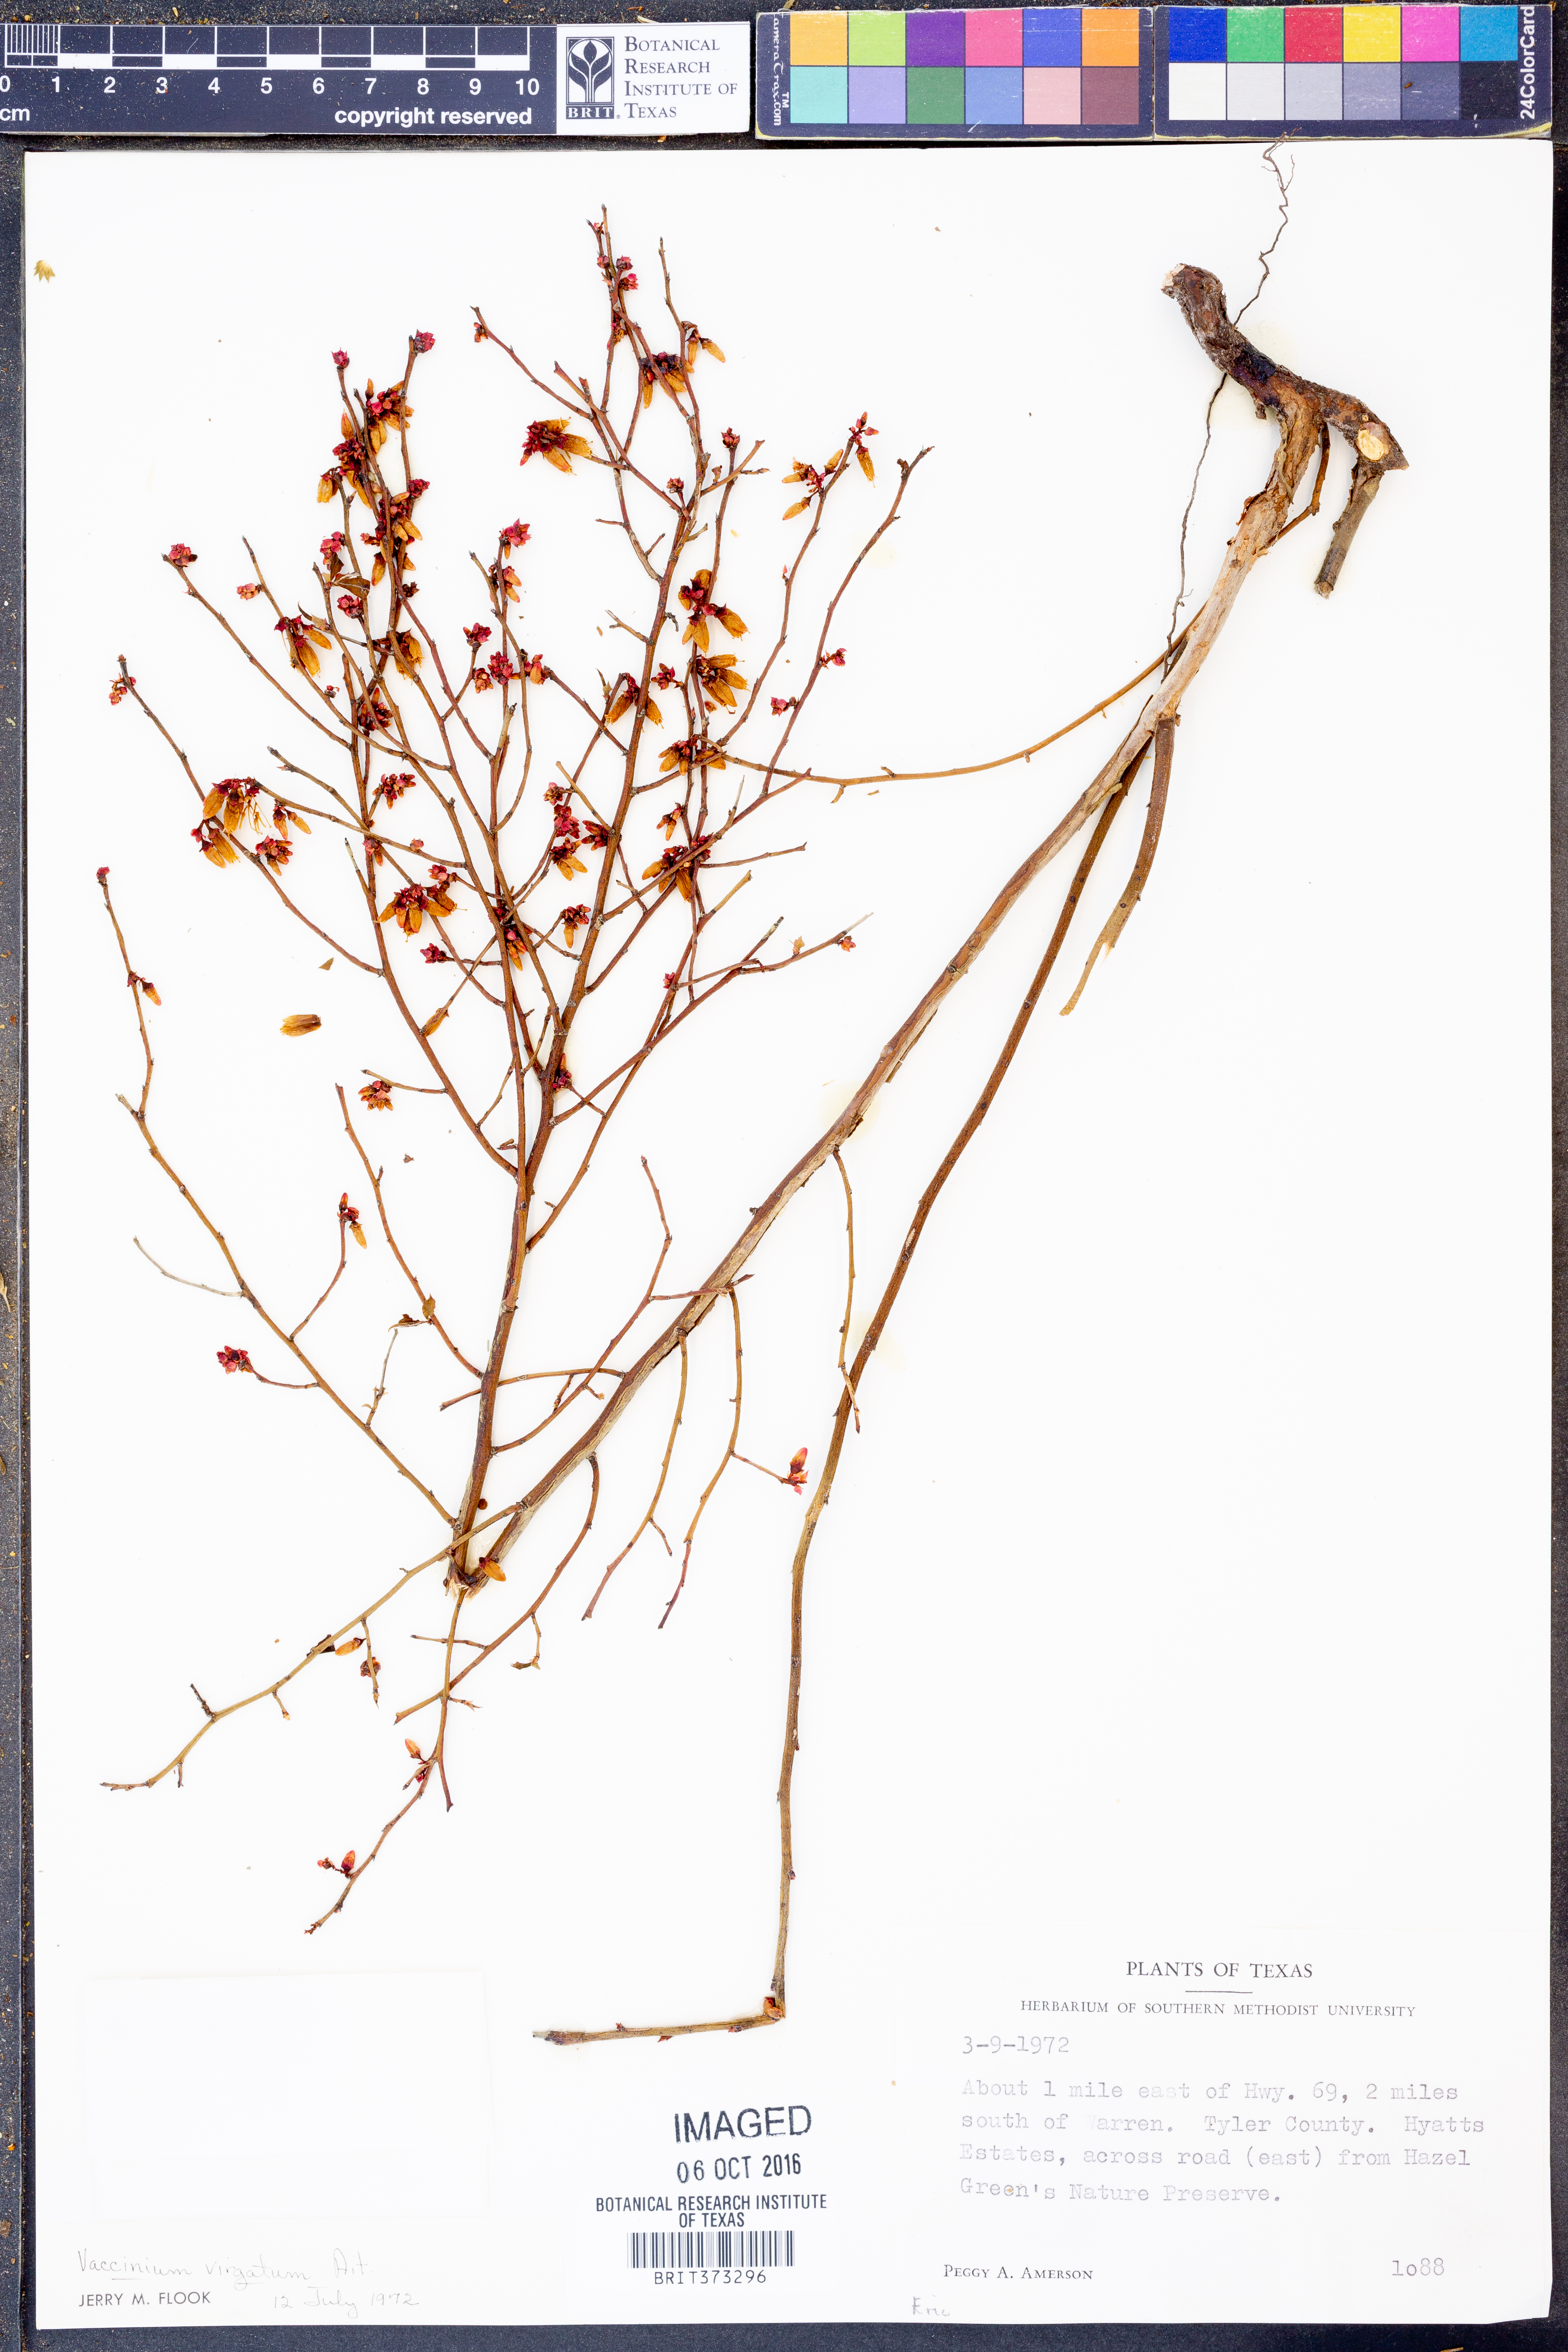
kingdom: Plantae
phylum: Tracheophyta
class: Magnoliopsida
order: Ericales
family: Ericaceae
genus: Vaccinium
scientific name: Vaccinium corymbosum
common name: Blueberry
